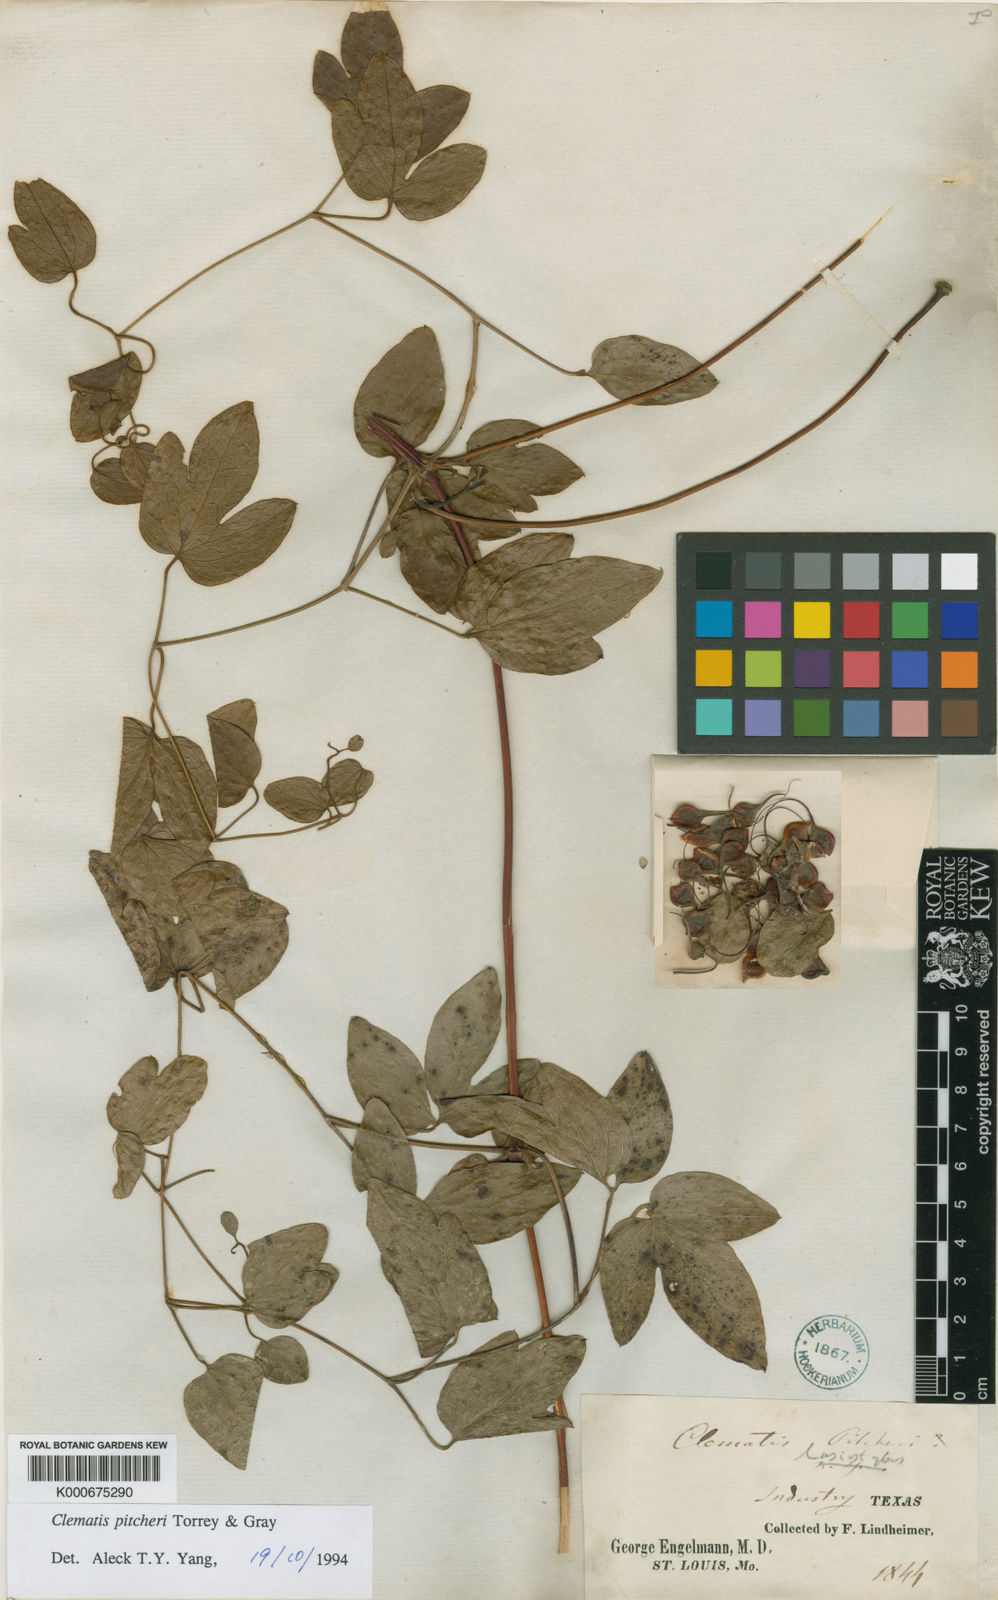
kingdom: Plantae
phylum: Tracheophyta
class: Magnoliopsida
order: Ranunculales
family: Ranunculaceae
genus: Clematis
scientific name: Clematis pitcheri
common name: Bellflower clematis
